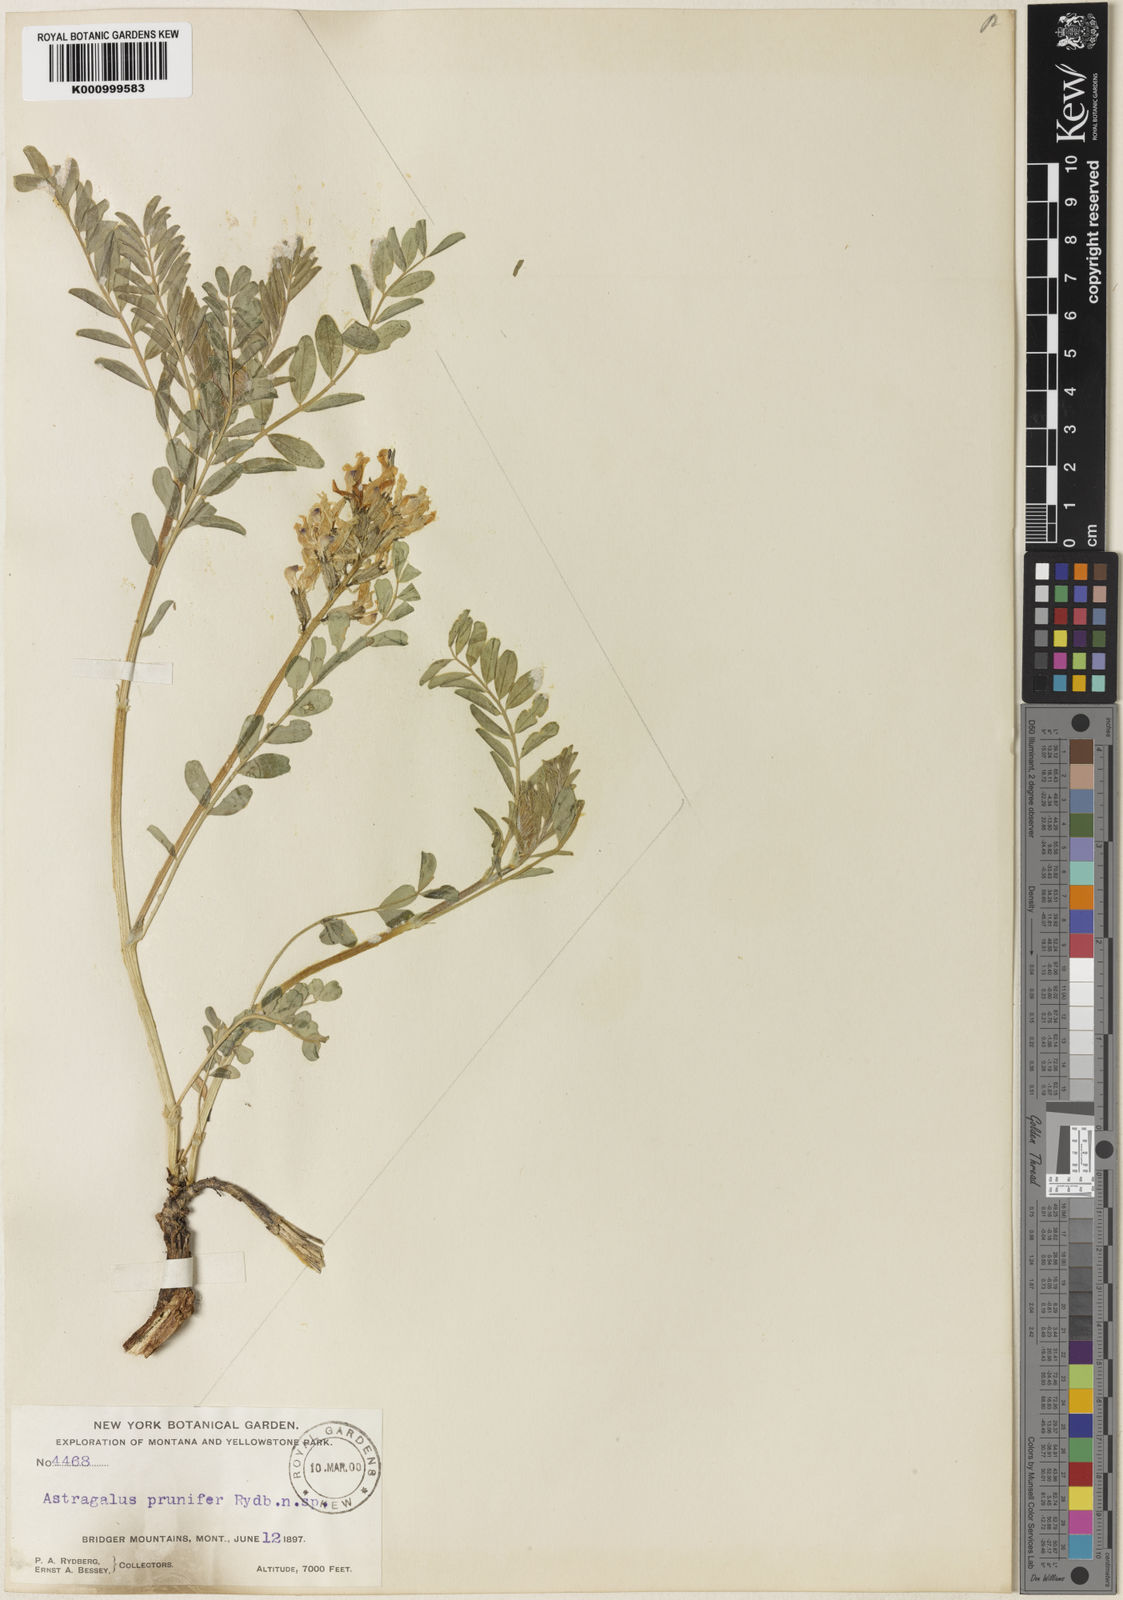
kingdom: Plantae
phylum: Tracheophyta
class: Magnoliopsida
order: Fabales
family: Fabaceae
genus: Astragalus
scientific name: Astragalus crassicarpus
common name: Ground-plum milk-vetch
